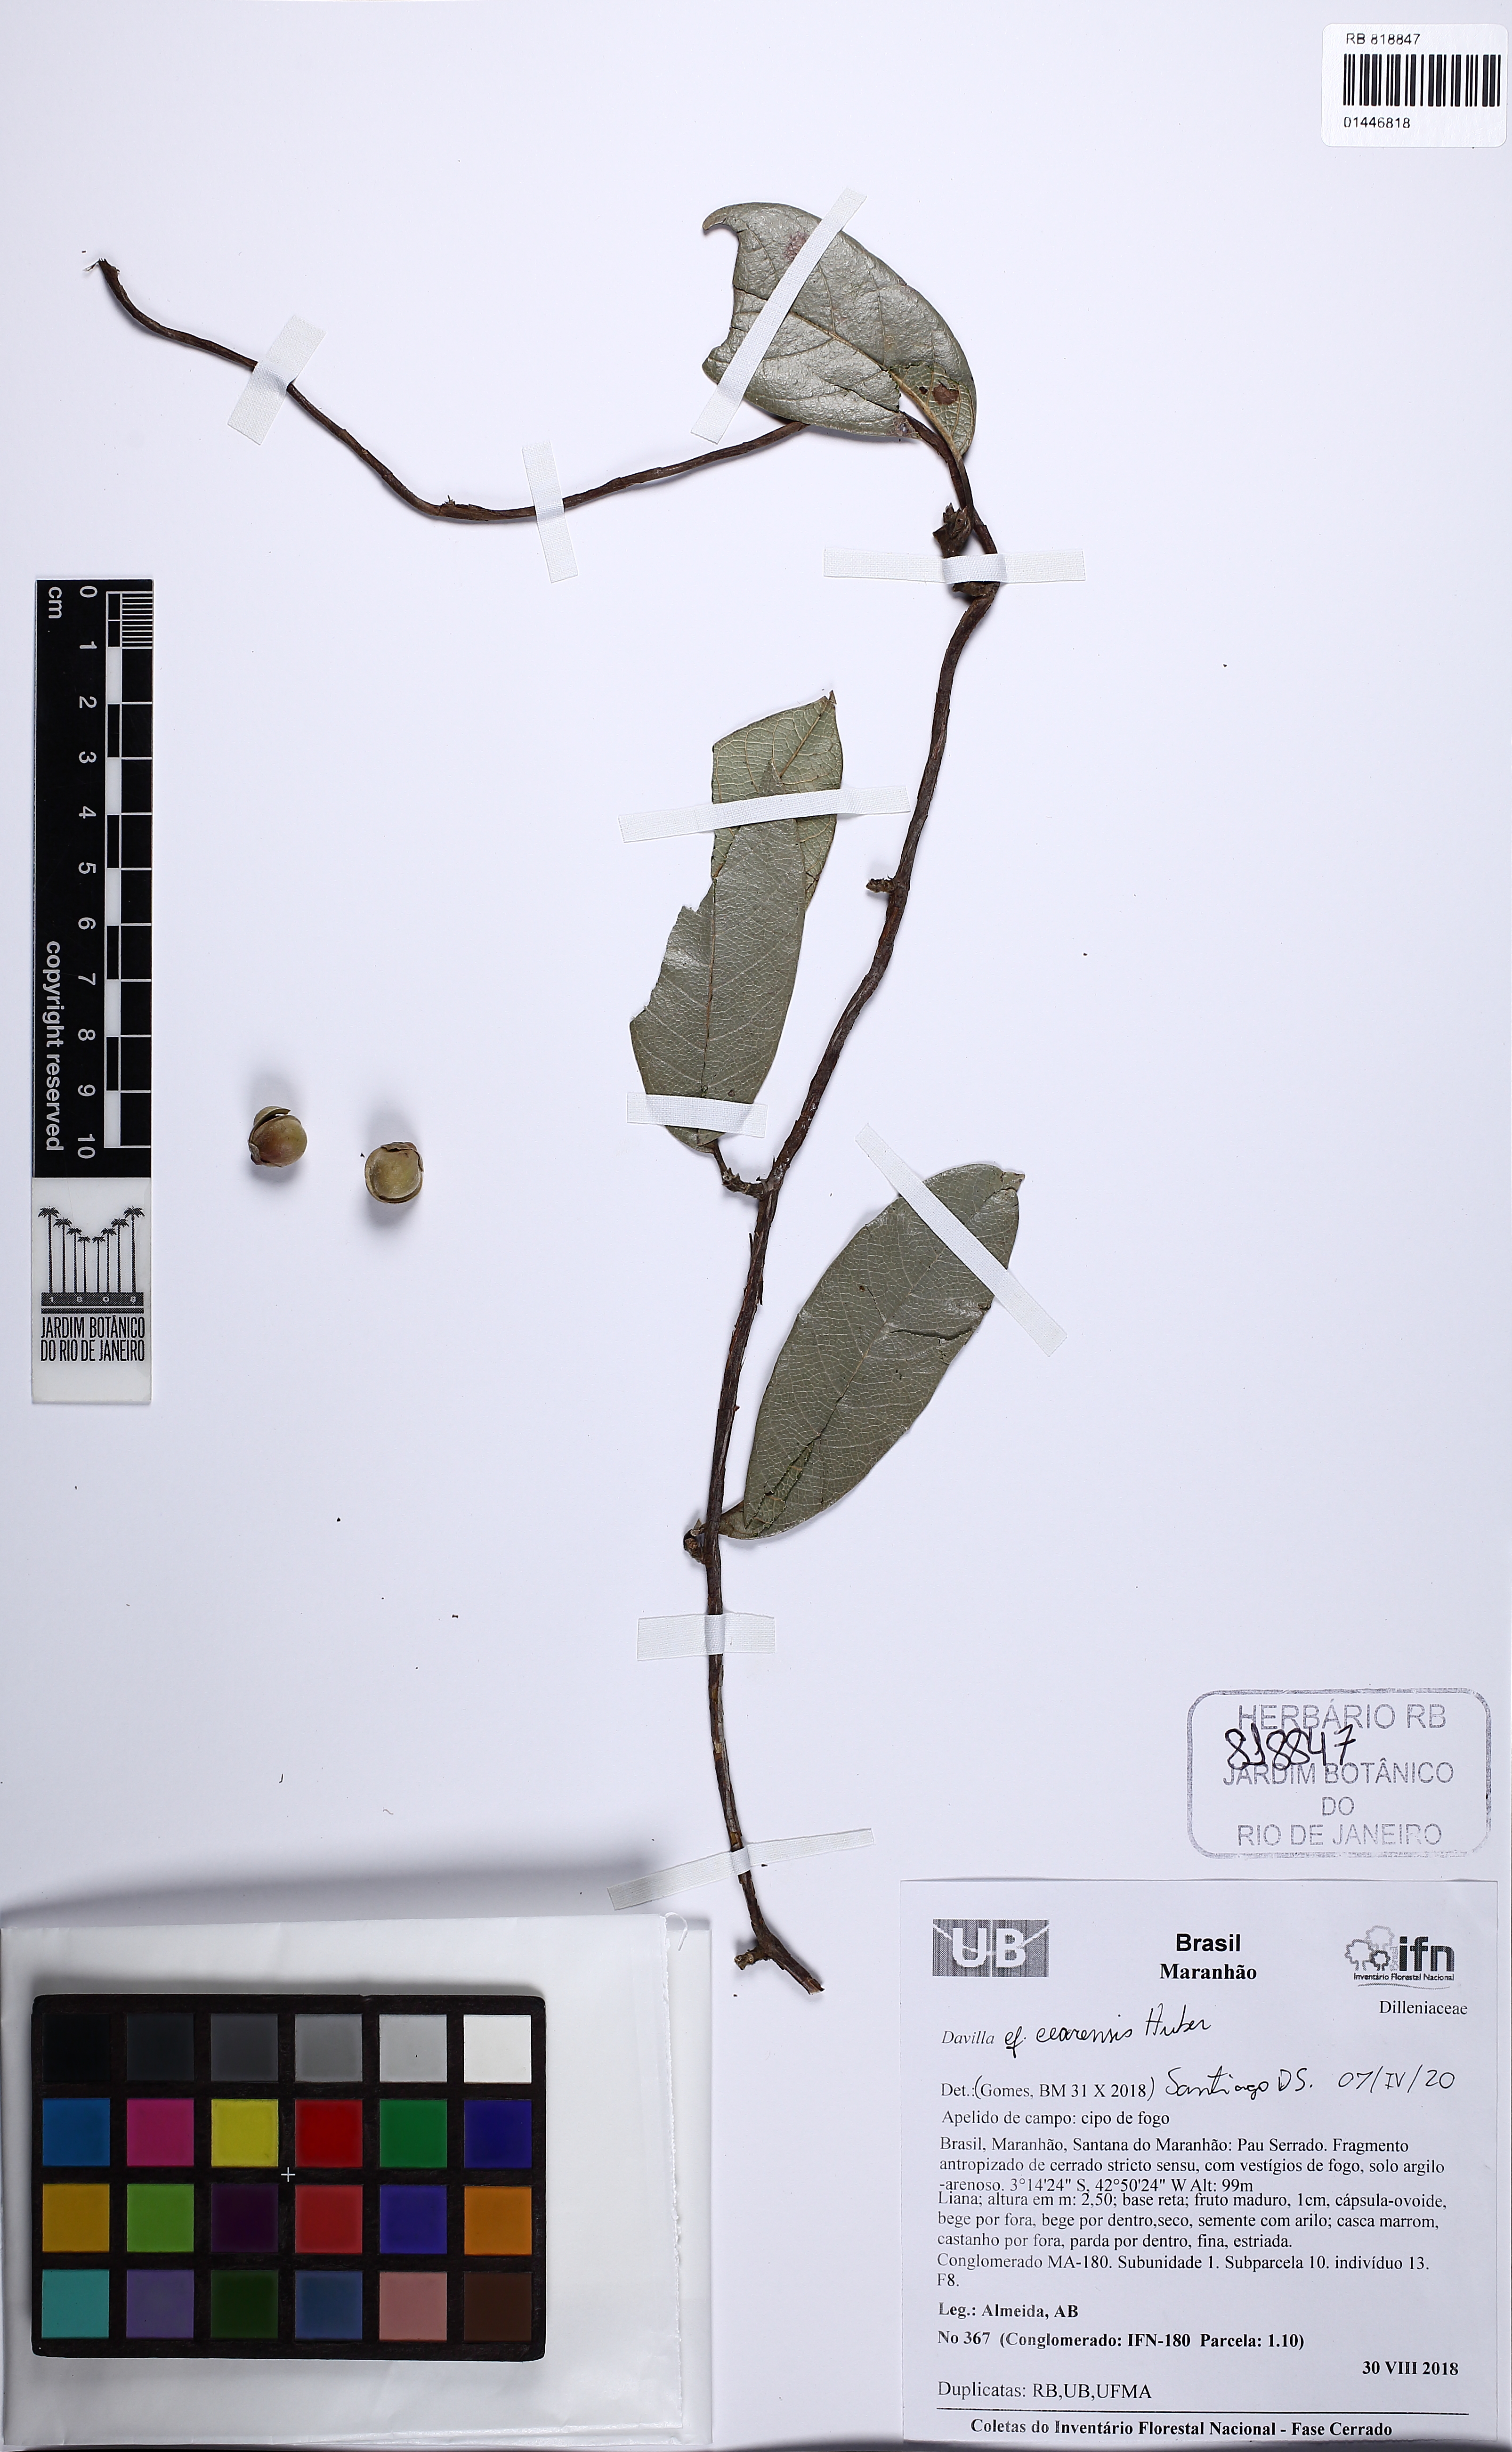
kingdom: Plantae
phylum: Tracheophyta
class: Magnoliopsida
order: Dilleniales
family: Dilleniaceae
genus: Davilla
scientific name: Davilla cearensis
